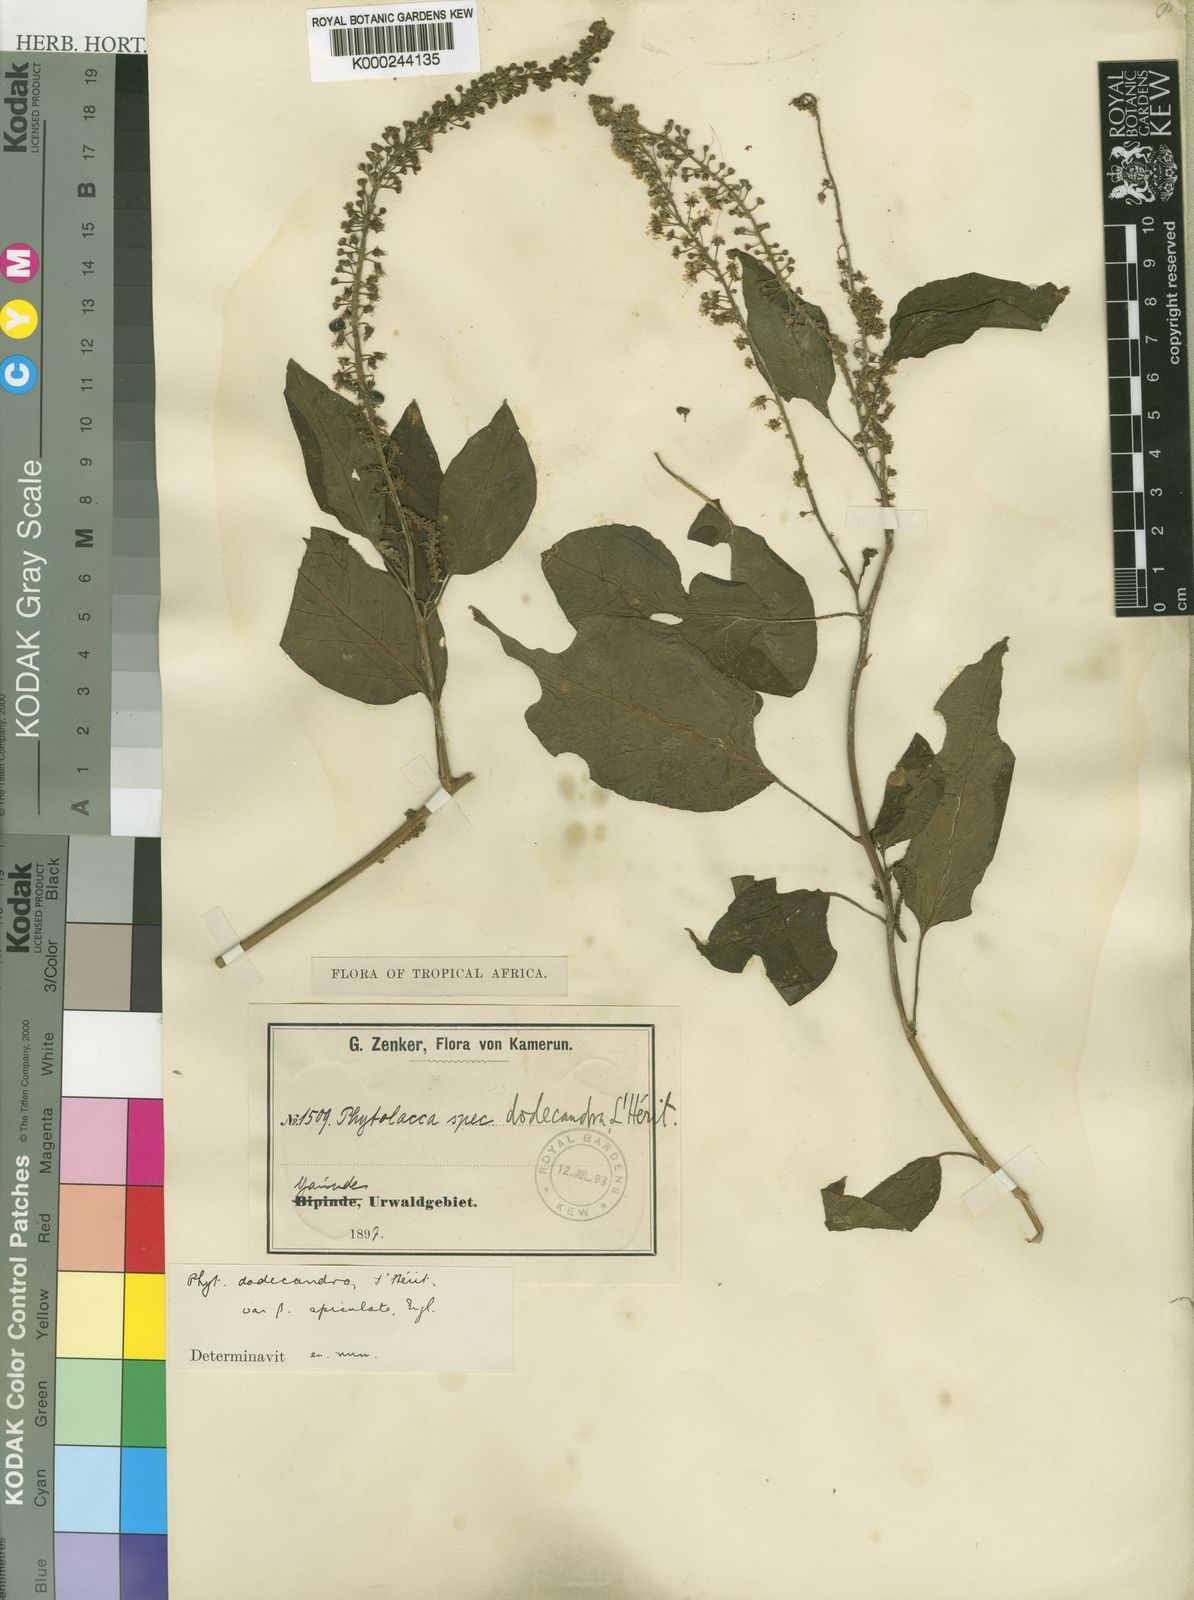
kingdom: Plantae
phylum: Tracheophyta
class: Magnoliopsida
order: Caryophyllales
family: Phytolaccaceae
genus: Phytolacca
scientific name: Phytolacca
